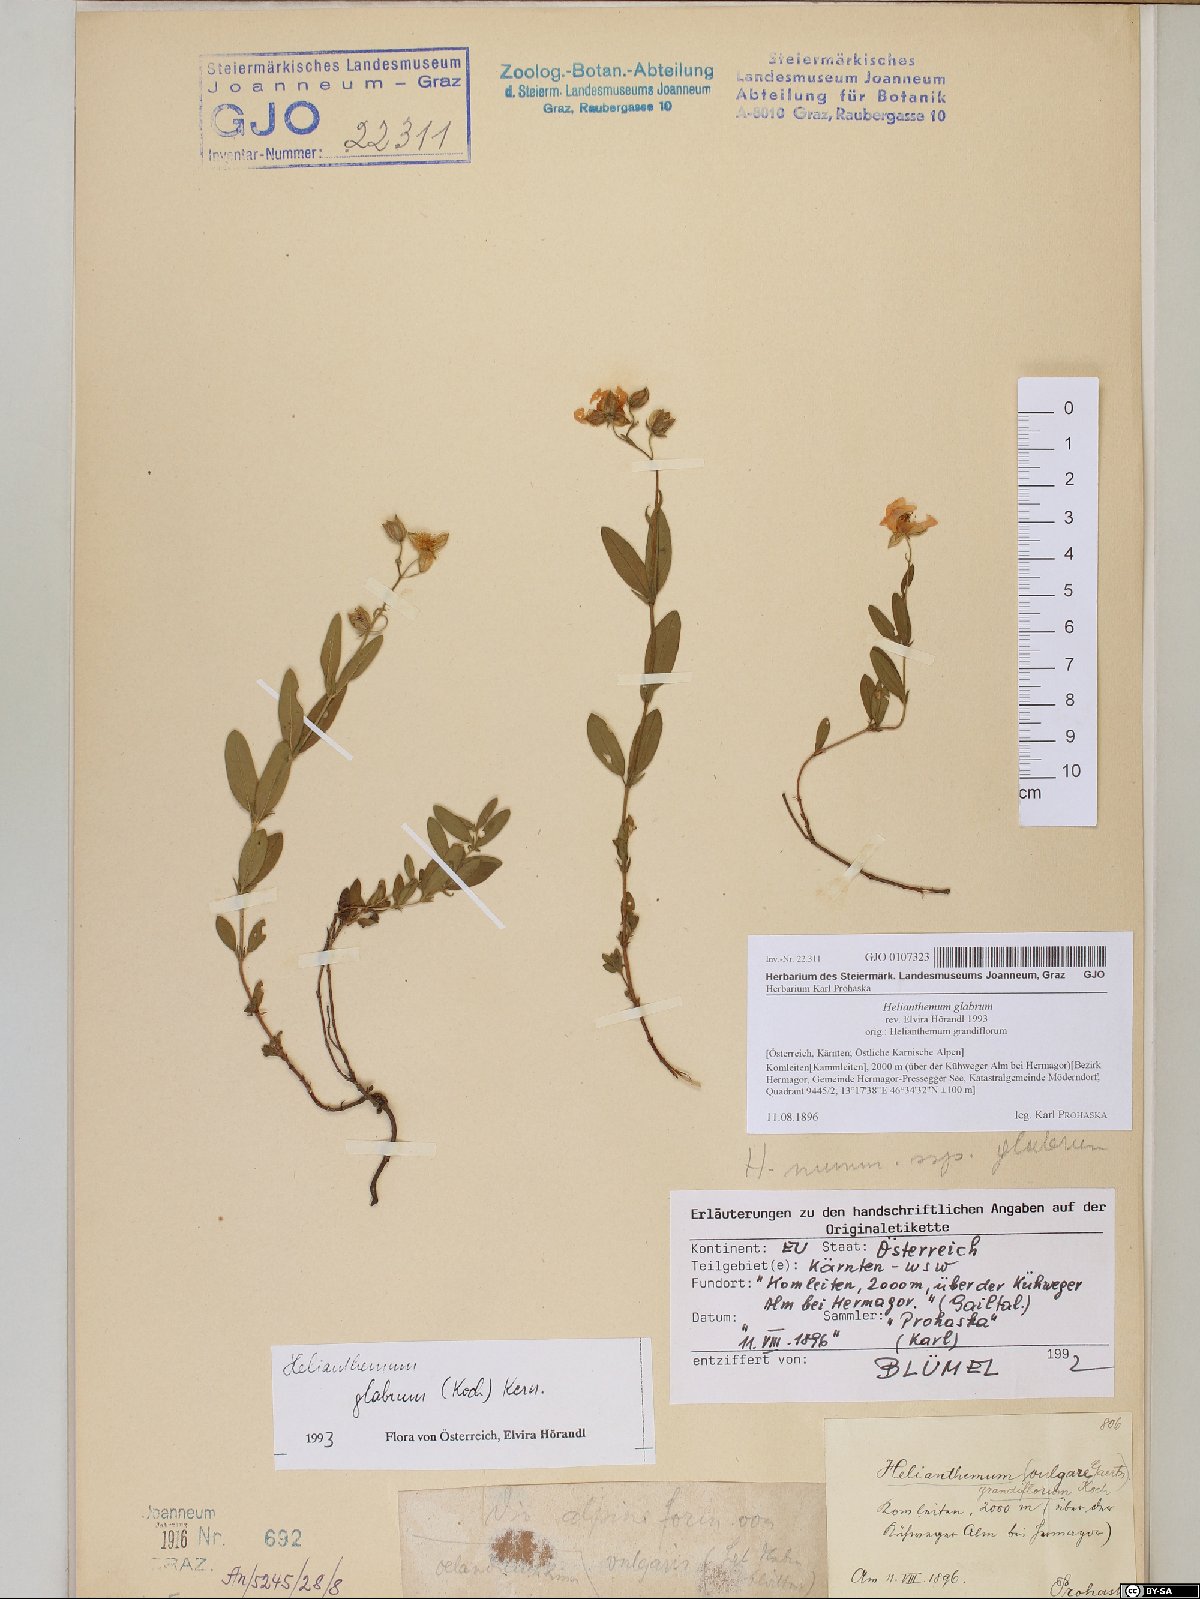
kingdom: Plantae
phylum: Tracheophyta
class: Magnoliopsida
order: Malvales
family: Cistaceae
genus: Helianthemum
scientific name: Helianthemum nummularium
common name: Common rock-rose
